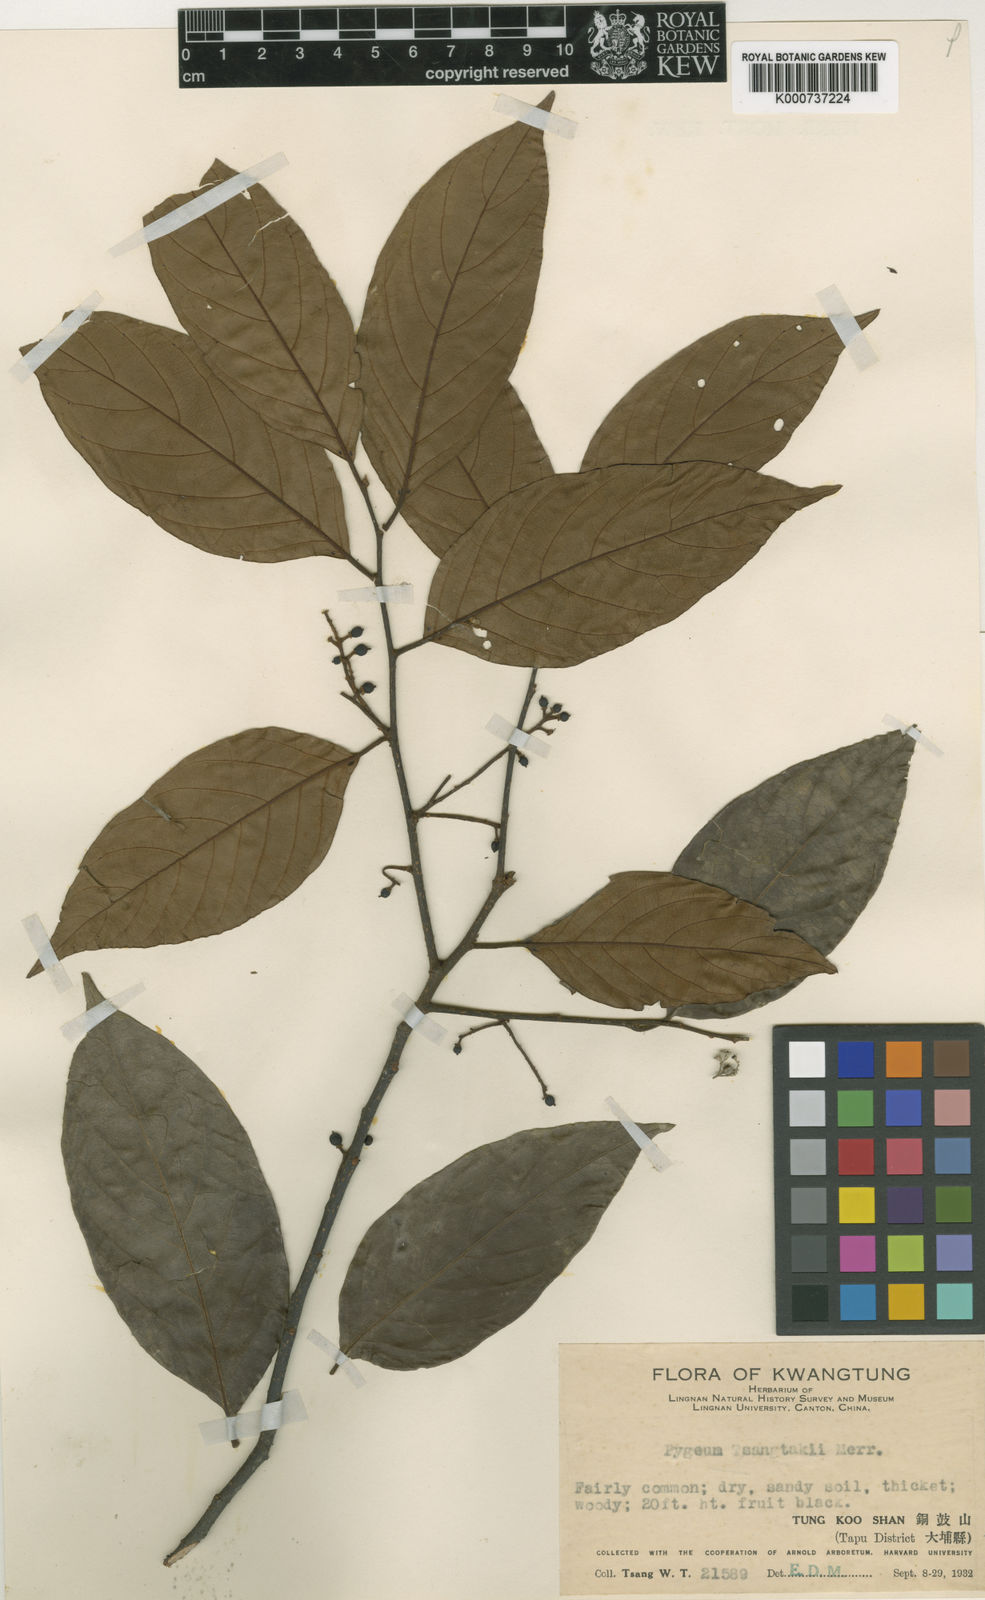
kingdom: Plantae
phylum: Tracheophyta
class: Magnoliopsida
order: Rosales
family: Rosaceae
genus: Prunus
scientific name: Prunus arborea
